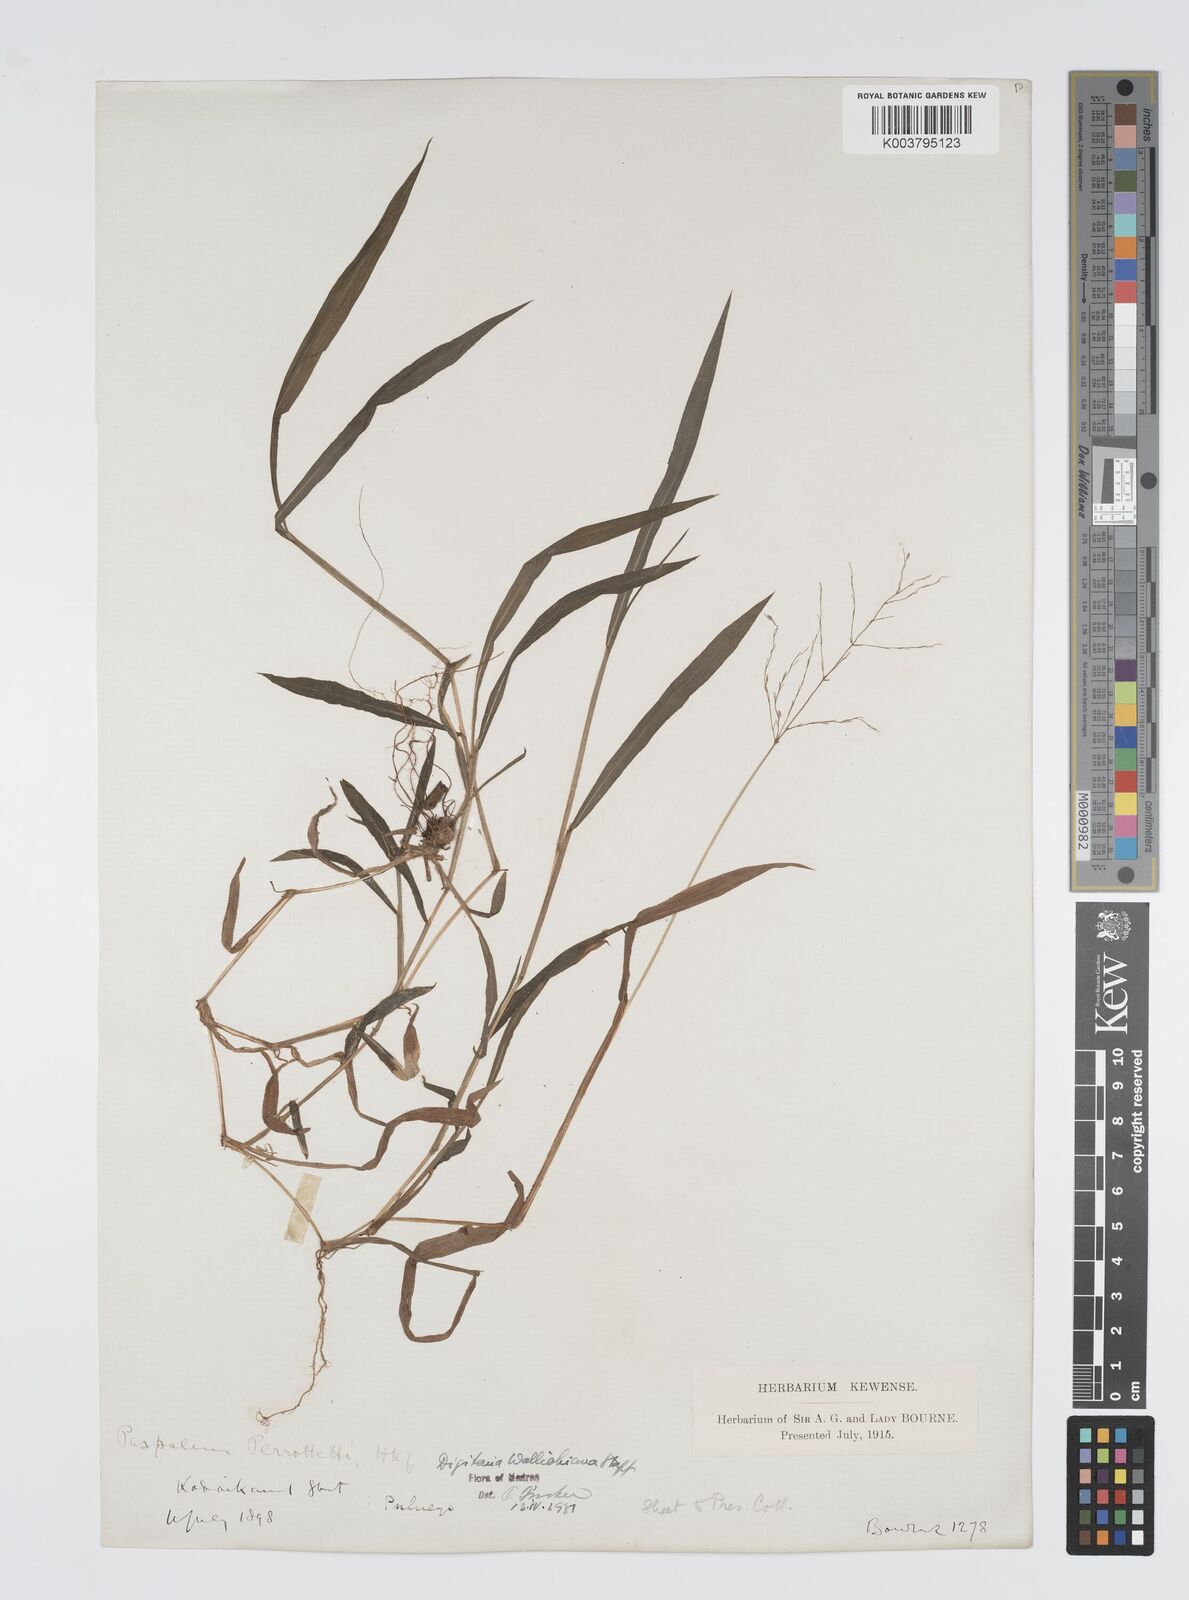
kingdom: Plantae
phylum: Tracheophyta
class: Liliopsida
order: Poales
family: Poaceae
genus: Digitaria
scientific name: Digitaria wallichiana
